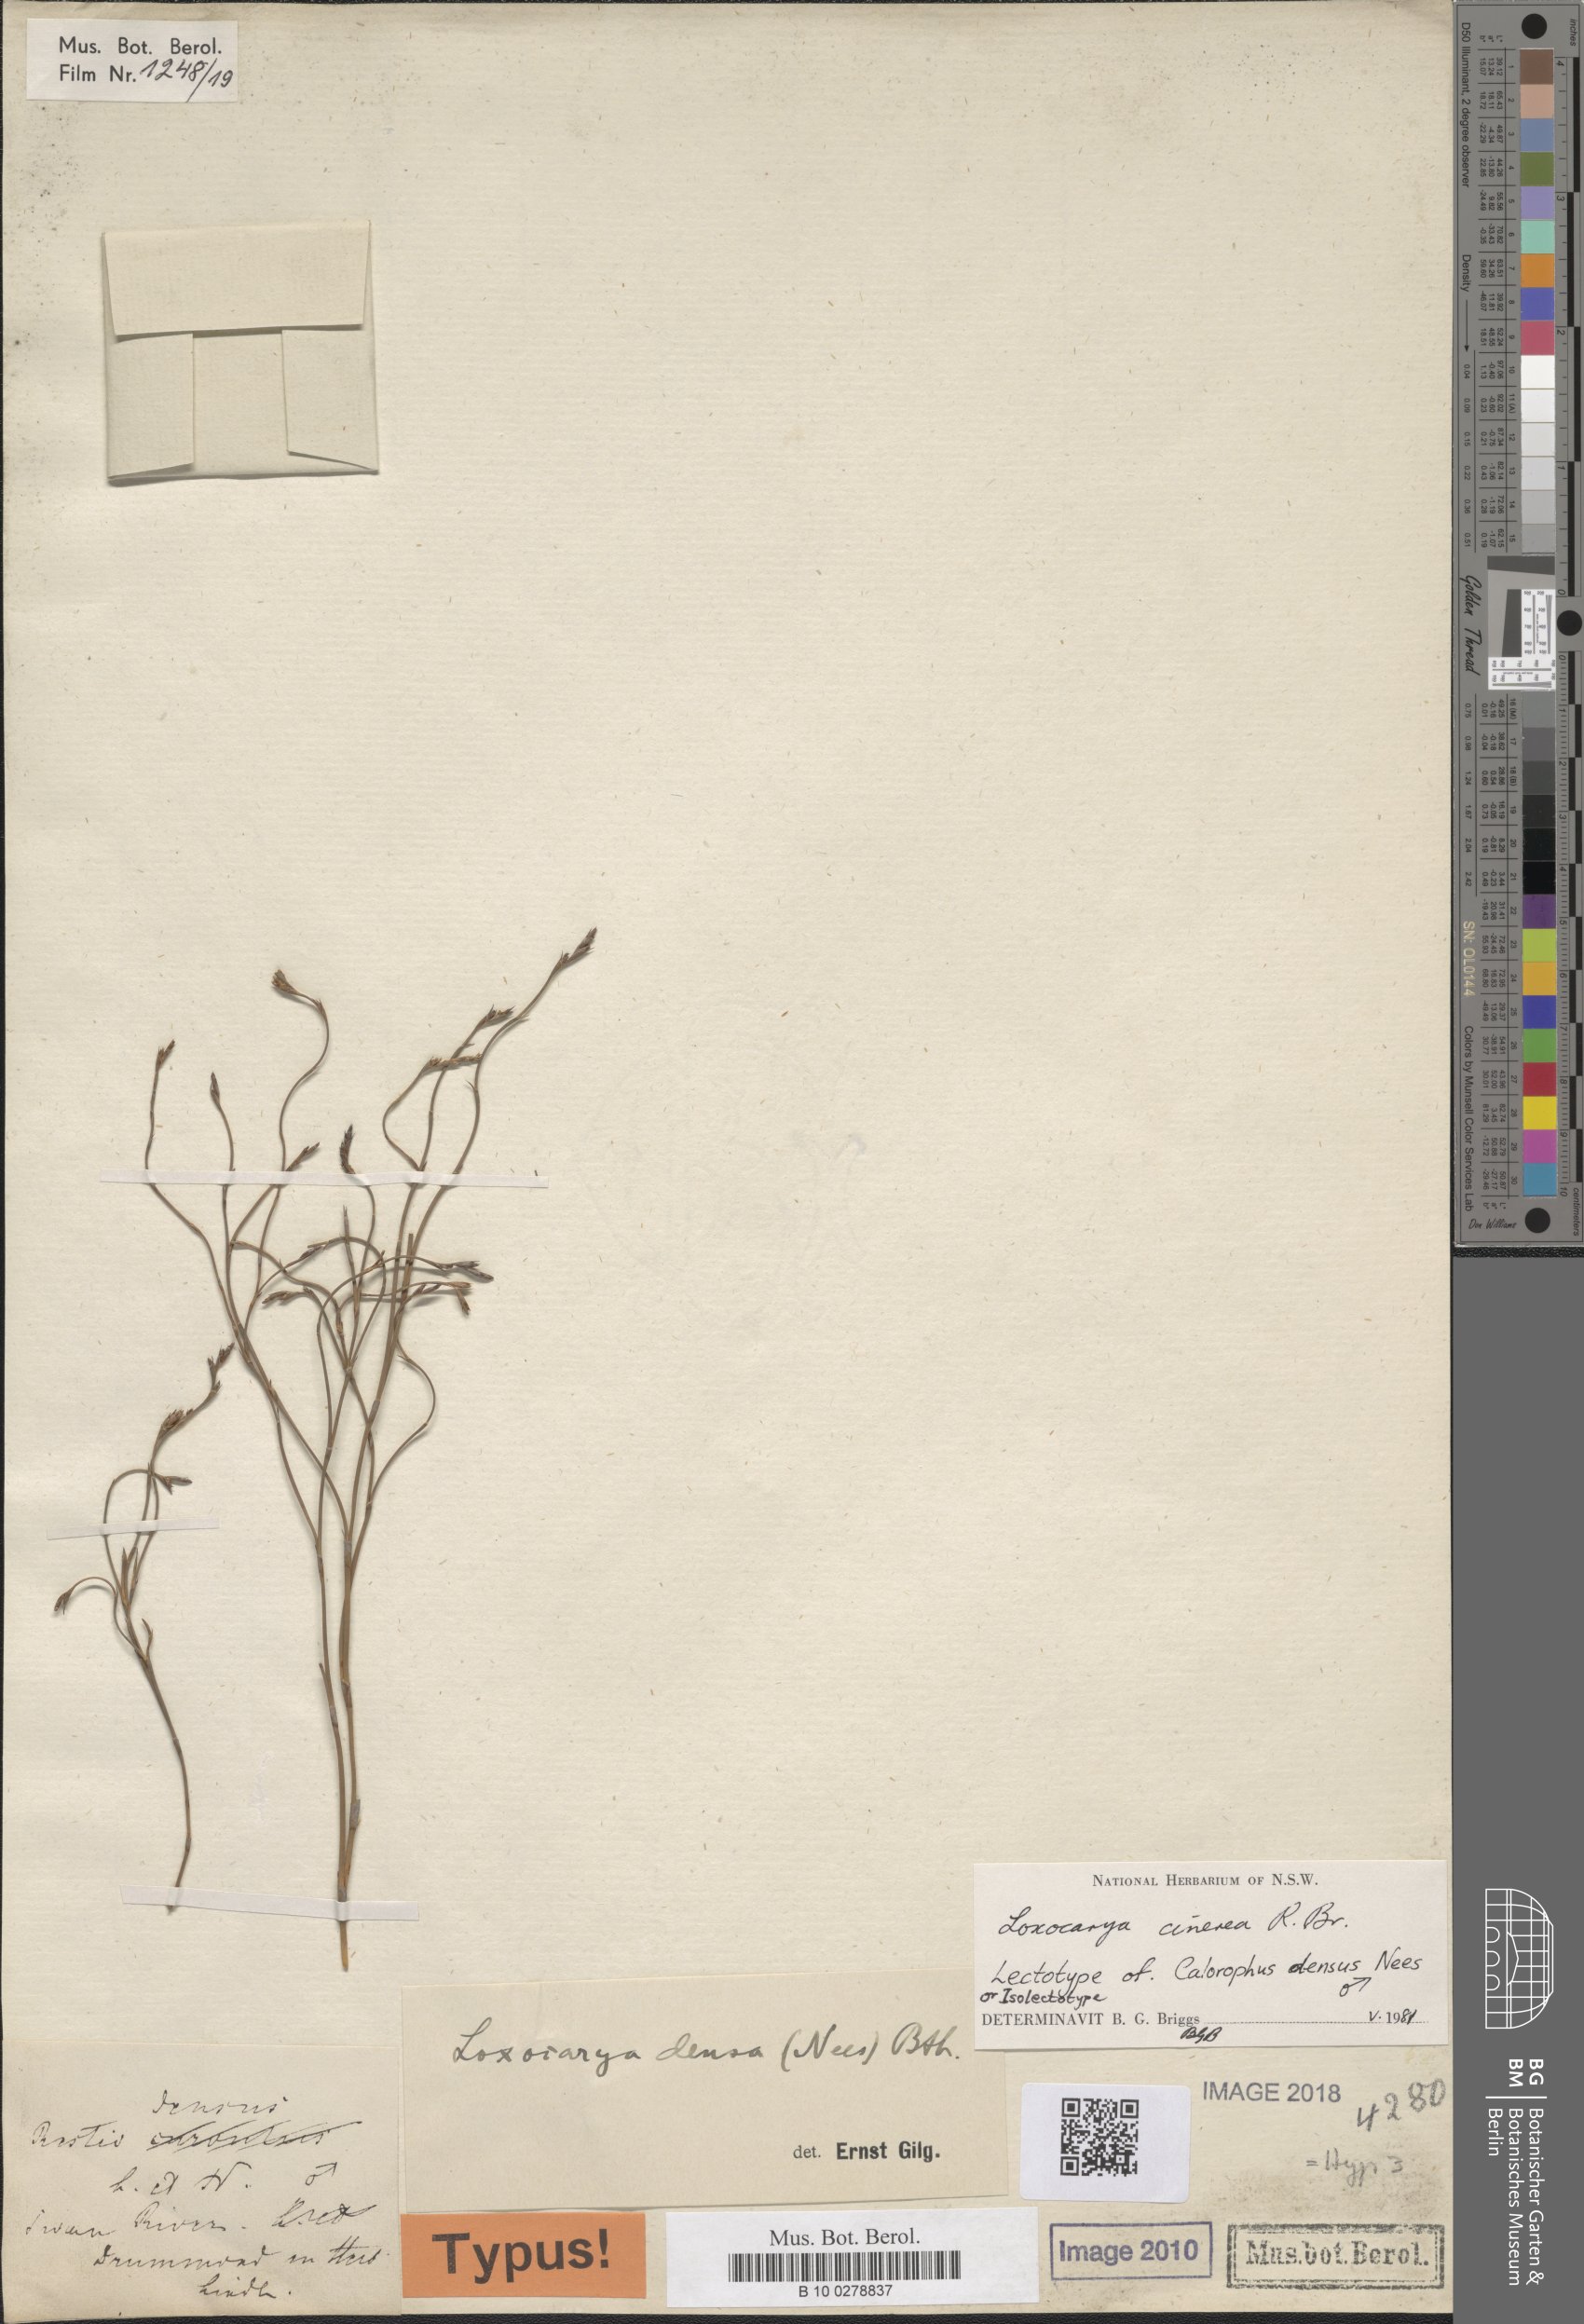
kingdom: Plantae
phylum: Tracheophyta
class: Liliopsida
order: Poales
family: Restionaceae
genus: Loxocarya
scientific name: Loxocarya cinerea
